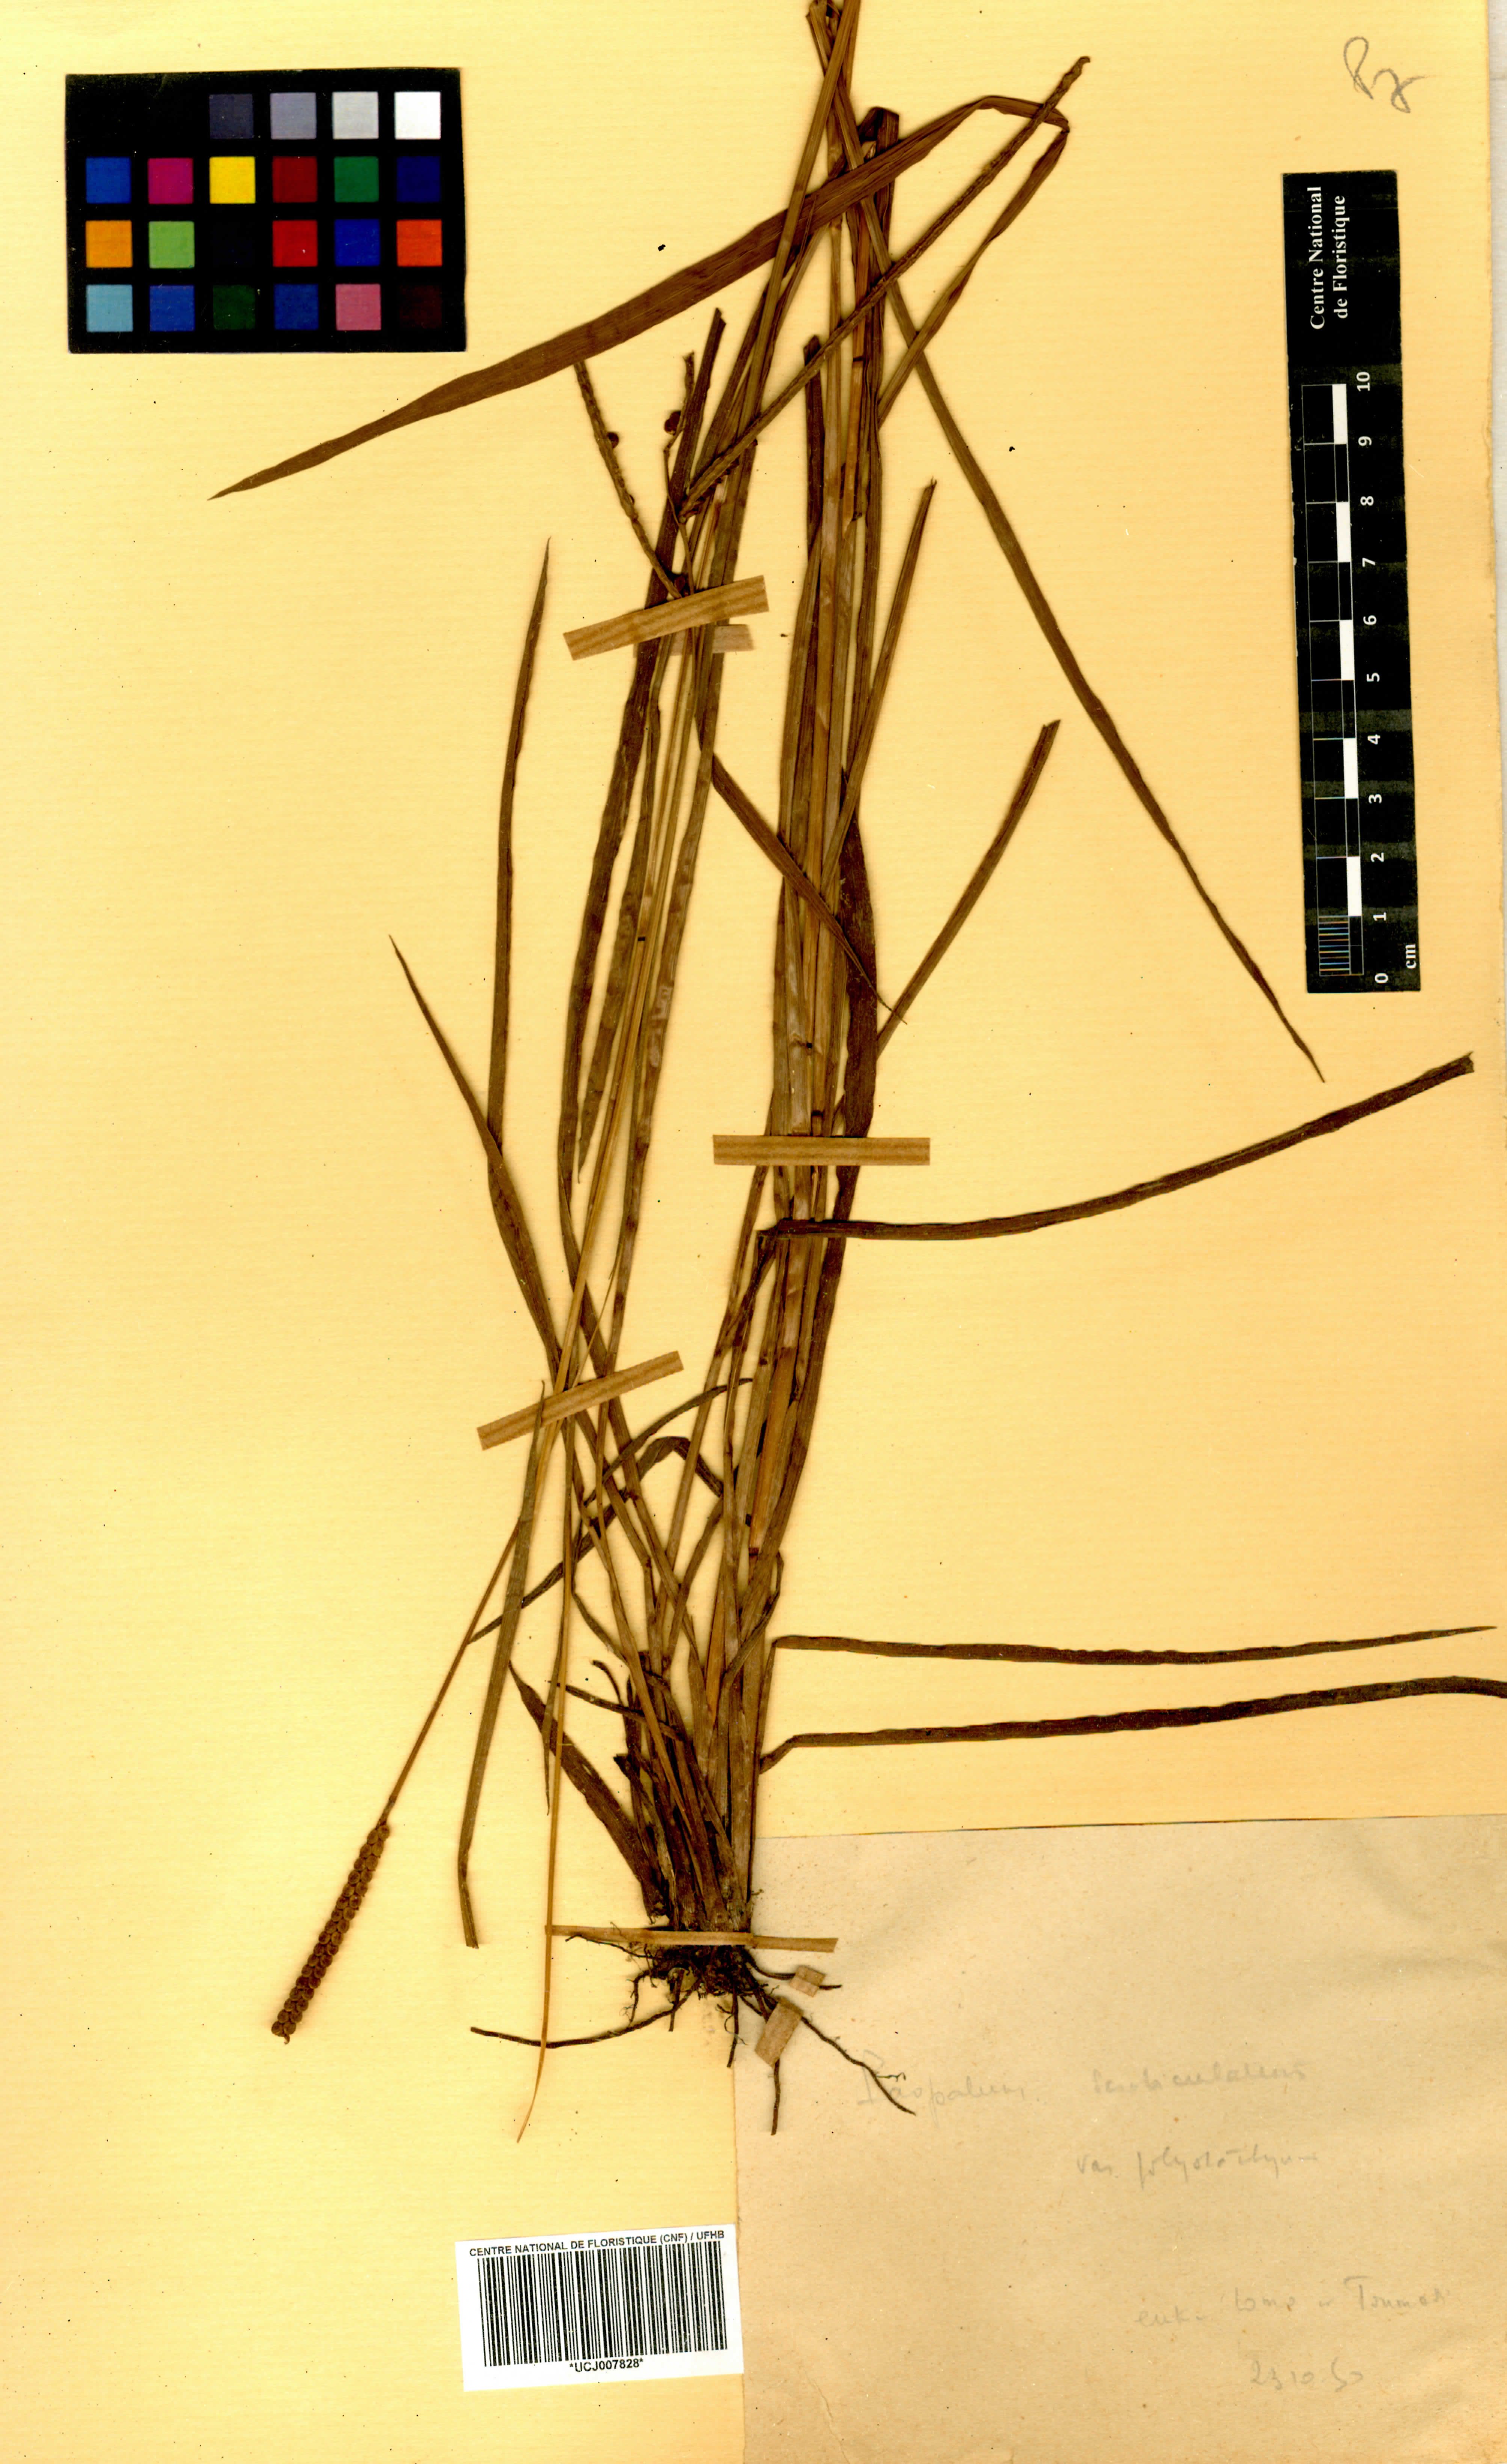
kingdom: Plantae
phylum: Tracheophyta
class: Liliopsida
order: Poales
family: Poaceae
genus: Paspalum
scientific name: Paspalum scrobiculatum
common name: Kodo millet
